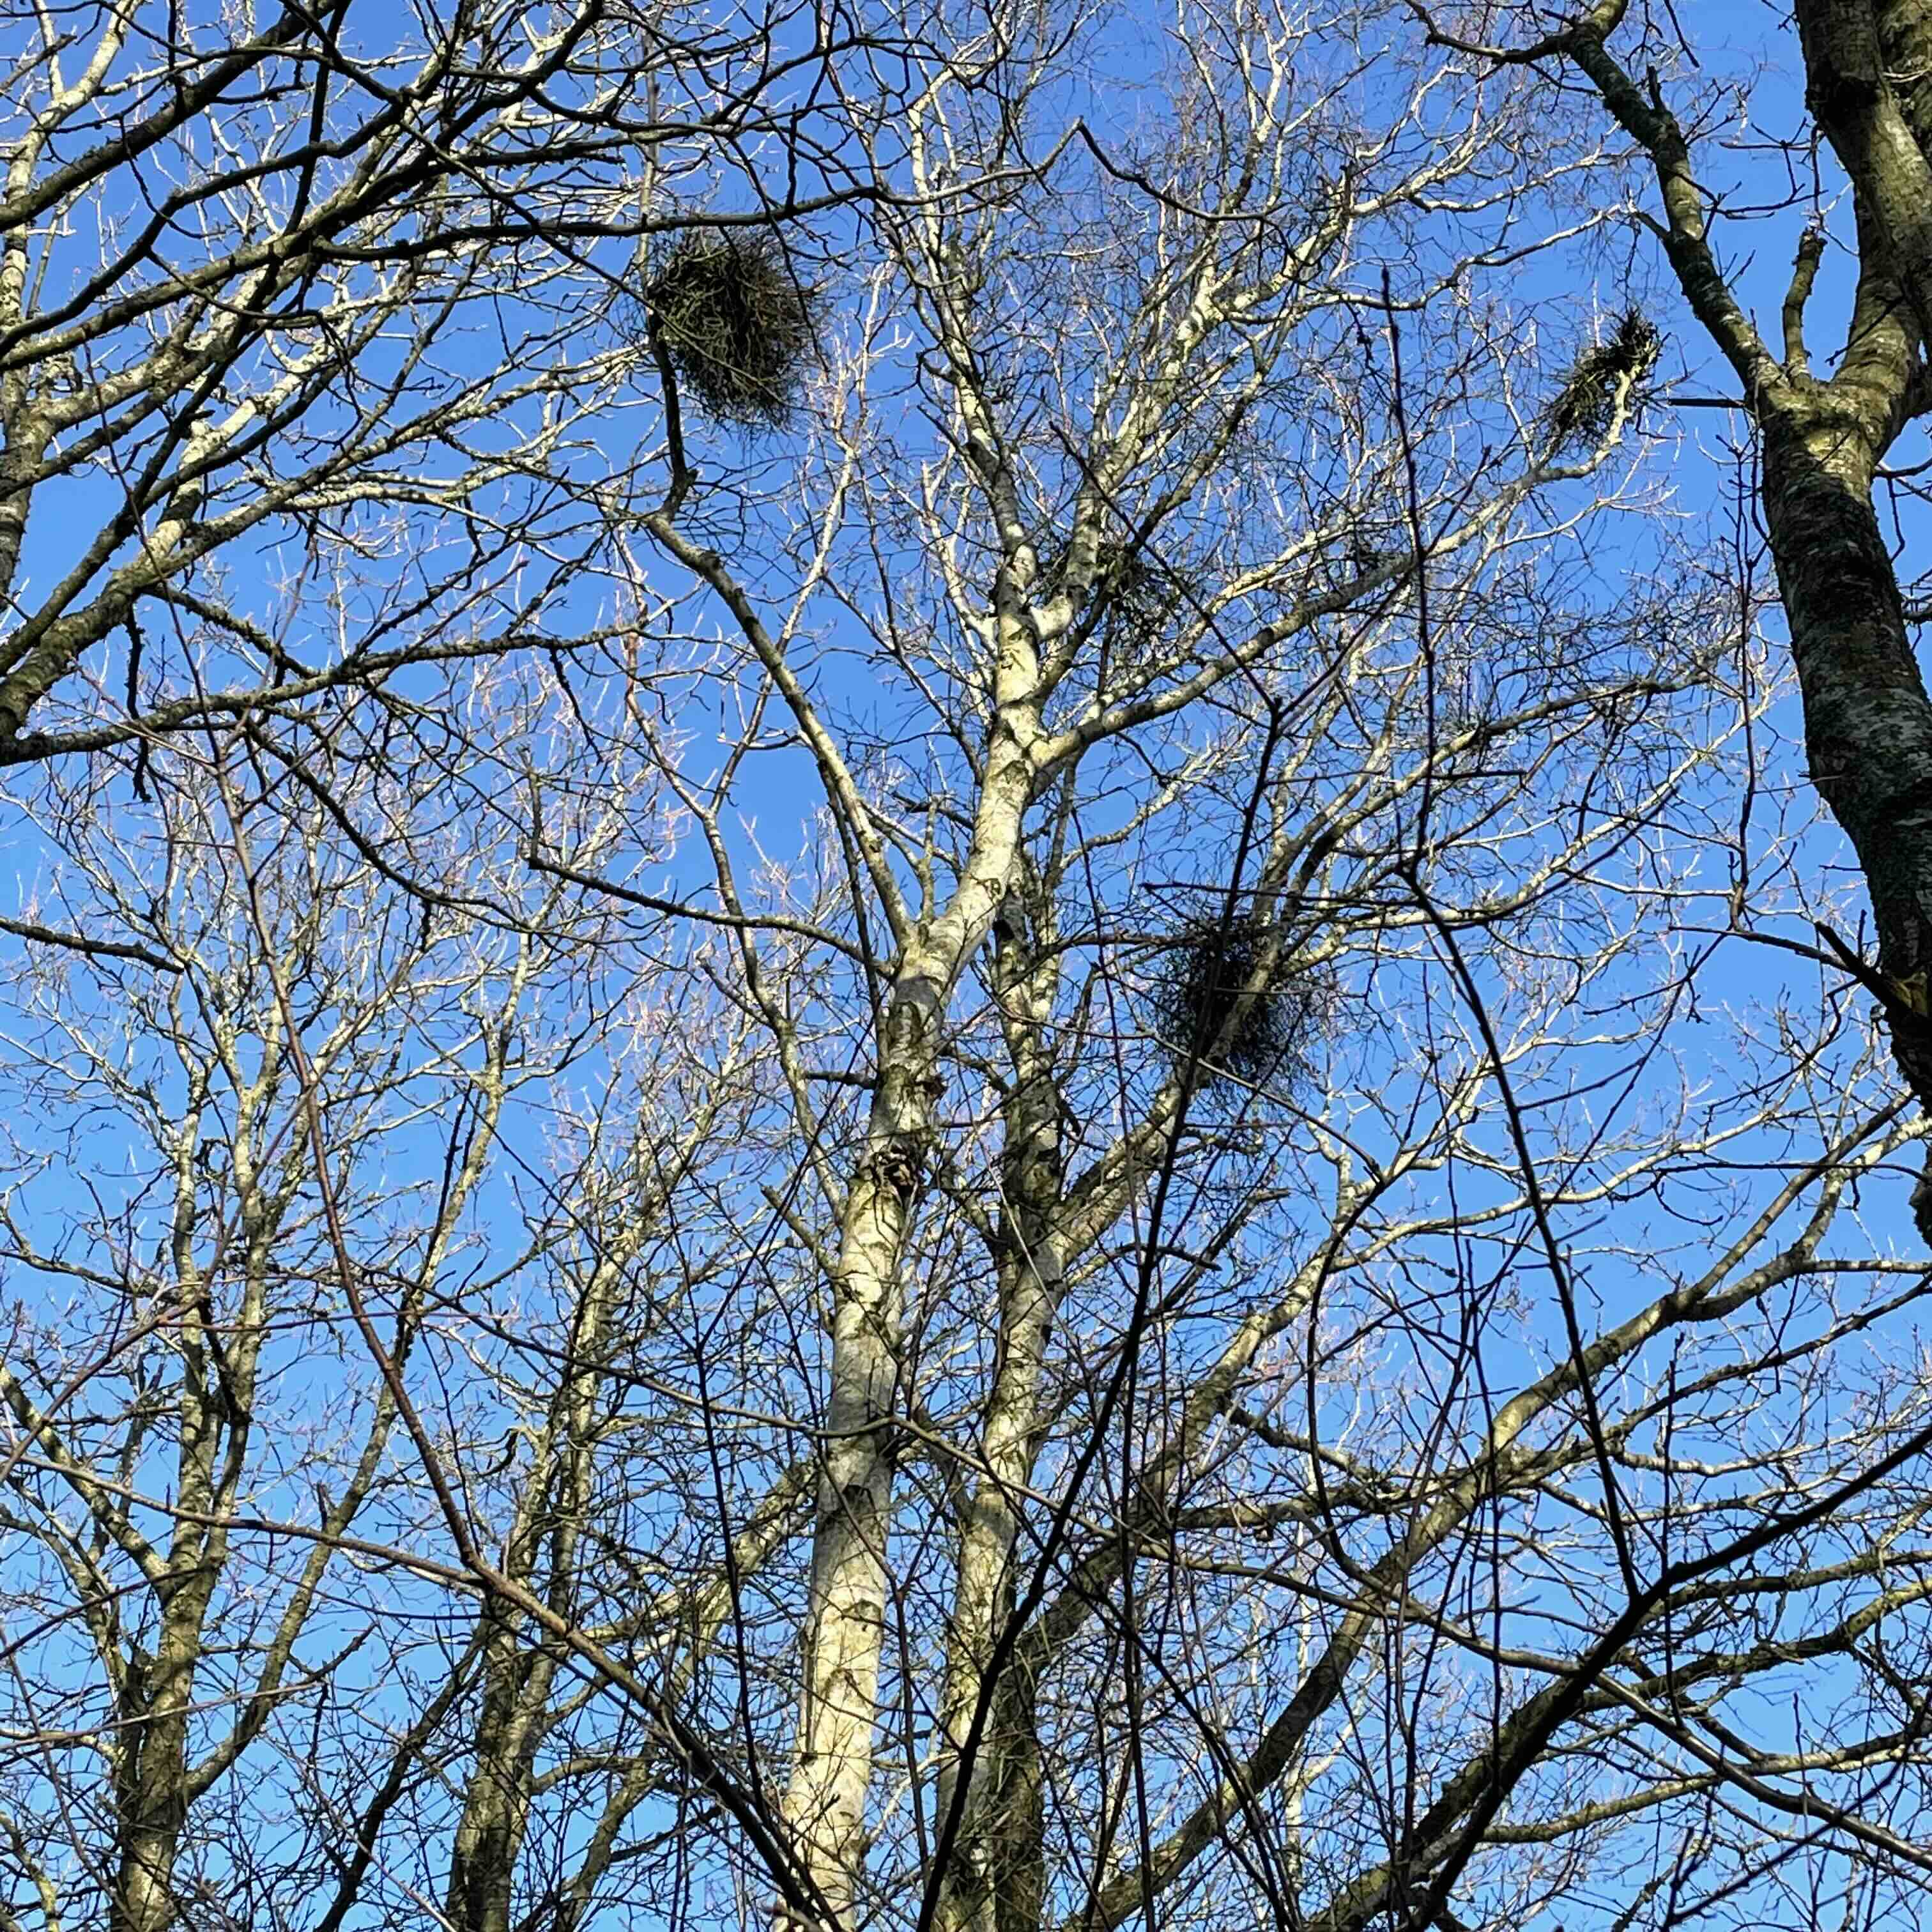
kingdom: Fungi
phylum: Ascomycota
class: Taphrinomycetes
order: Taphrinales
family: Taphrinaceae
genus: Taphrina
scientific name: Taphrina betulina
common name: hekse-sækdug
